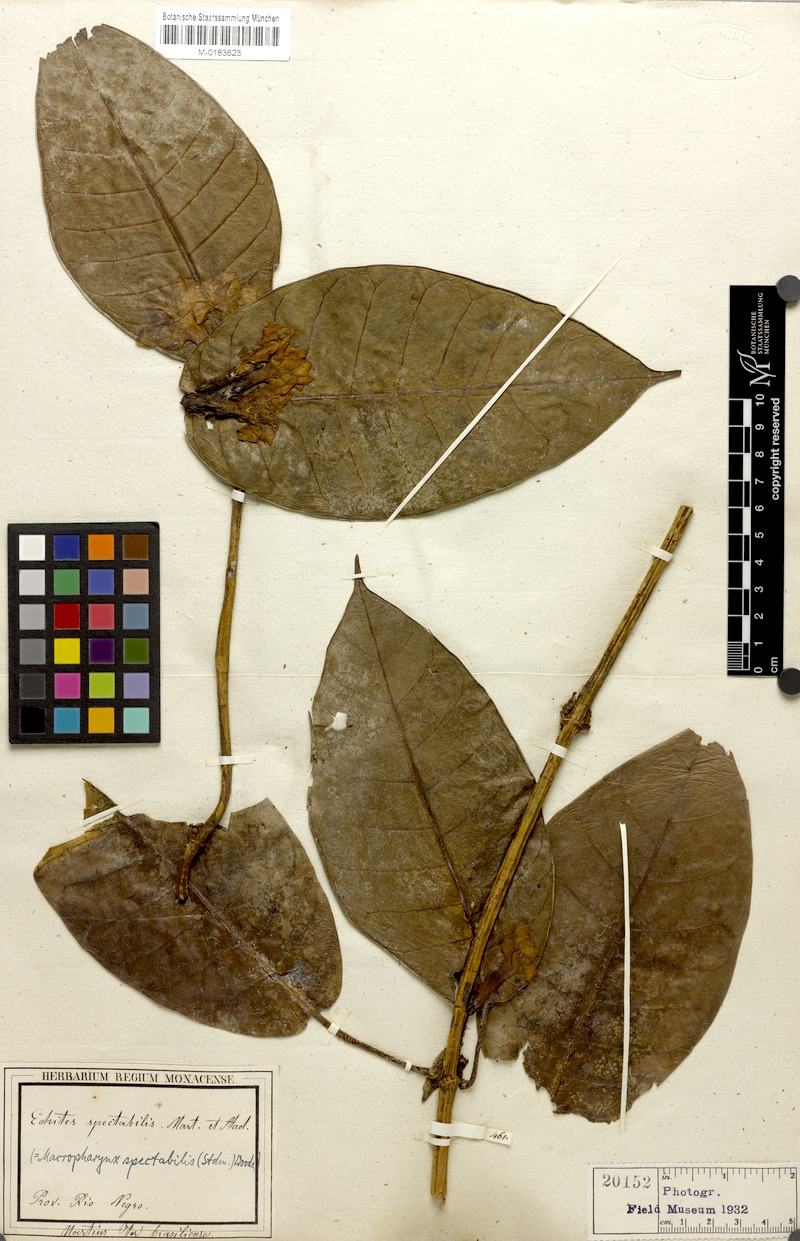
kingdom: Plantae
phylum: Tracheophyta
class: Magnoliopsida
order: Gentianales
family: Apocynaceae
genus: Macropharynx
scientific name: Macropharynx spectabilis
